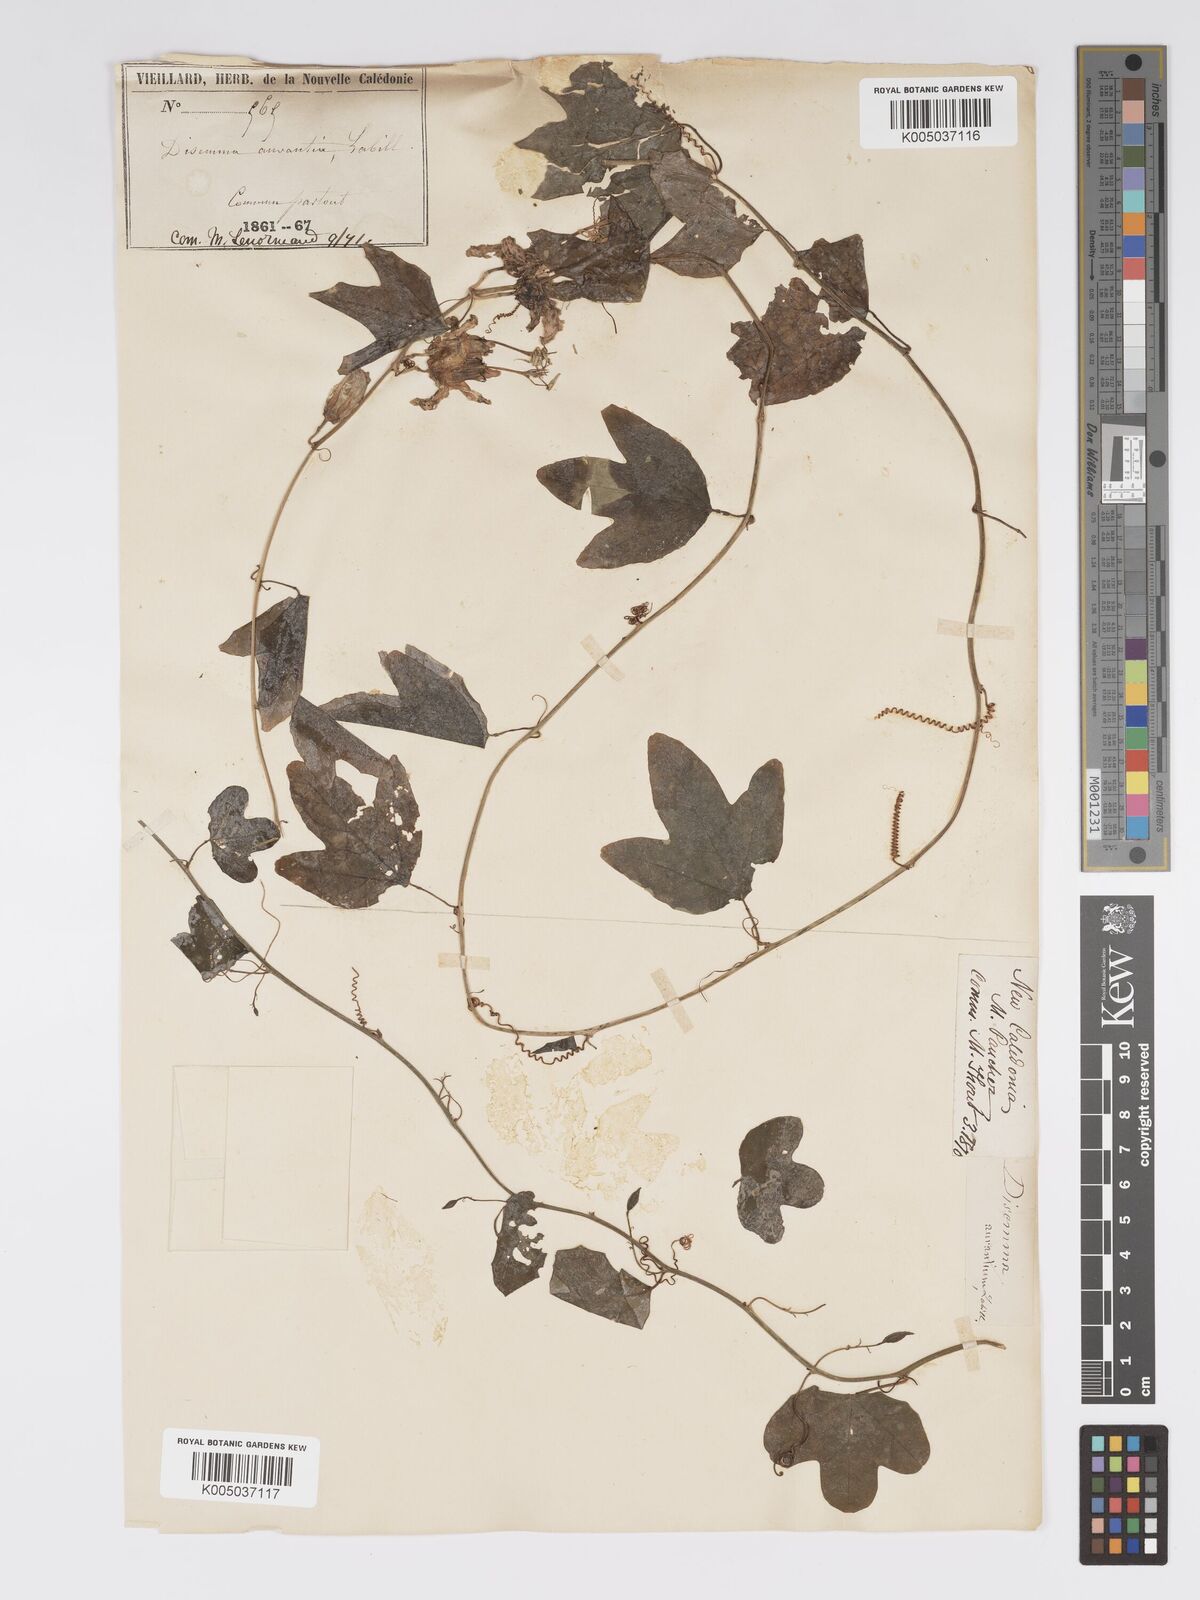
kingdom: Plantae
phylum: Tracheophyta
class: Magnoliopsida
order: Malpighiales
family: Passifloraceae
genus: Passiflora
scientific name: Passiflora aurantia
